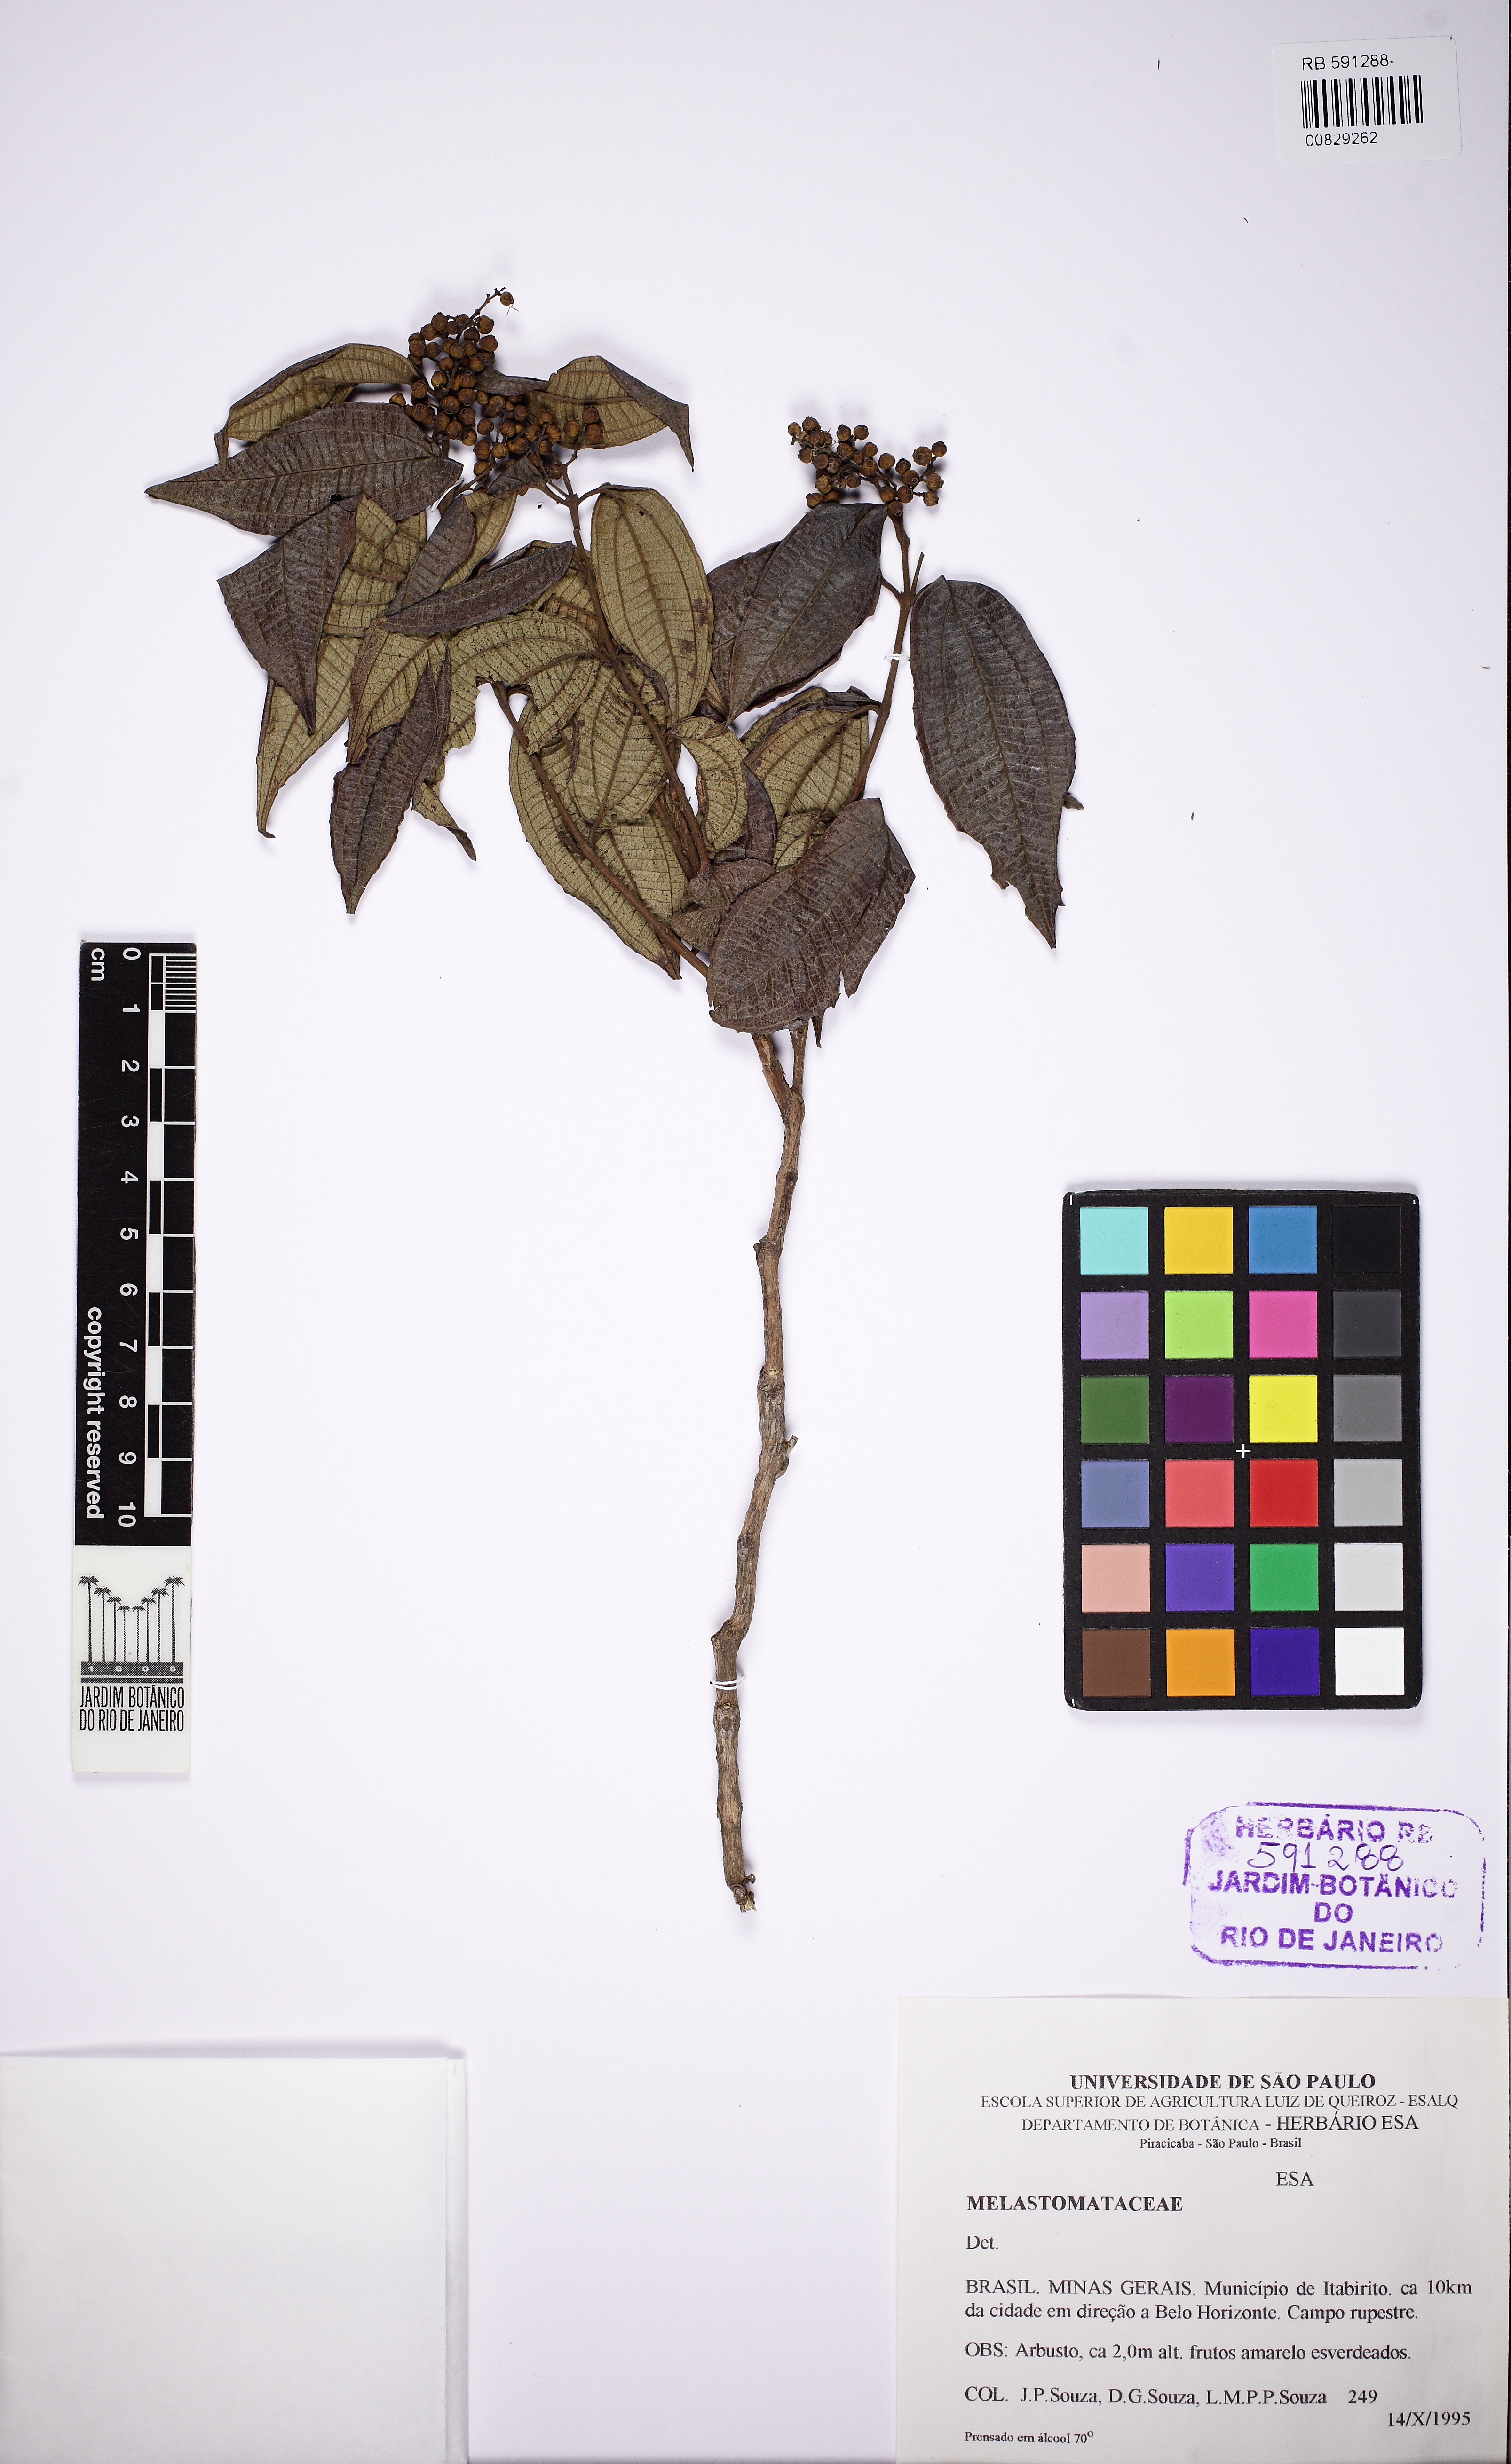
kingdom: Plantae
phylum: Tracheophyta
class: Magnoliopsida
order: Myrtales
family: Melastomataceae
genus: Miconia
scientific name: Miconia
